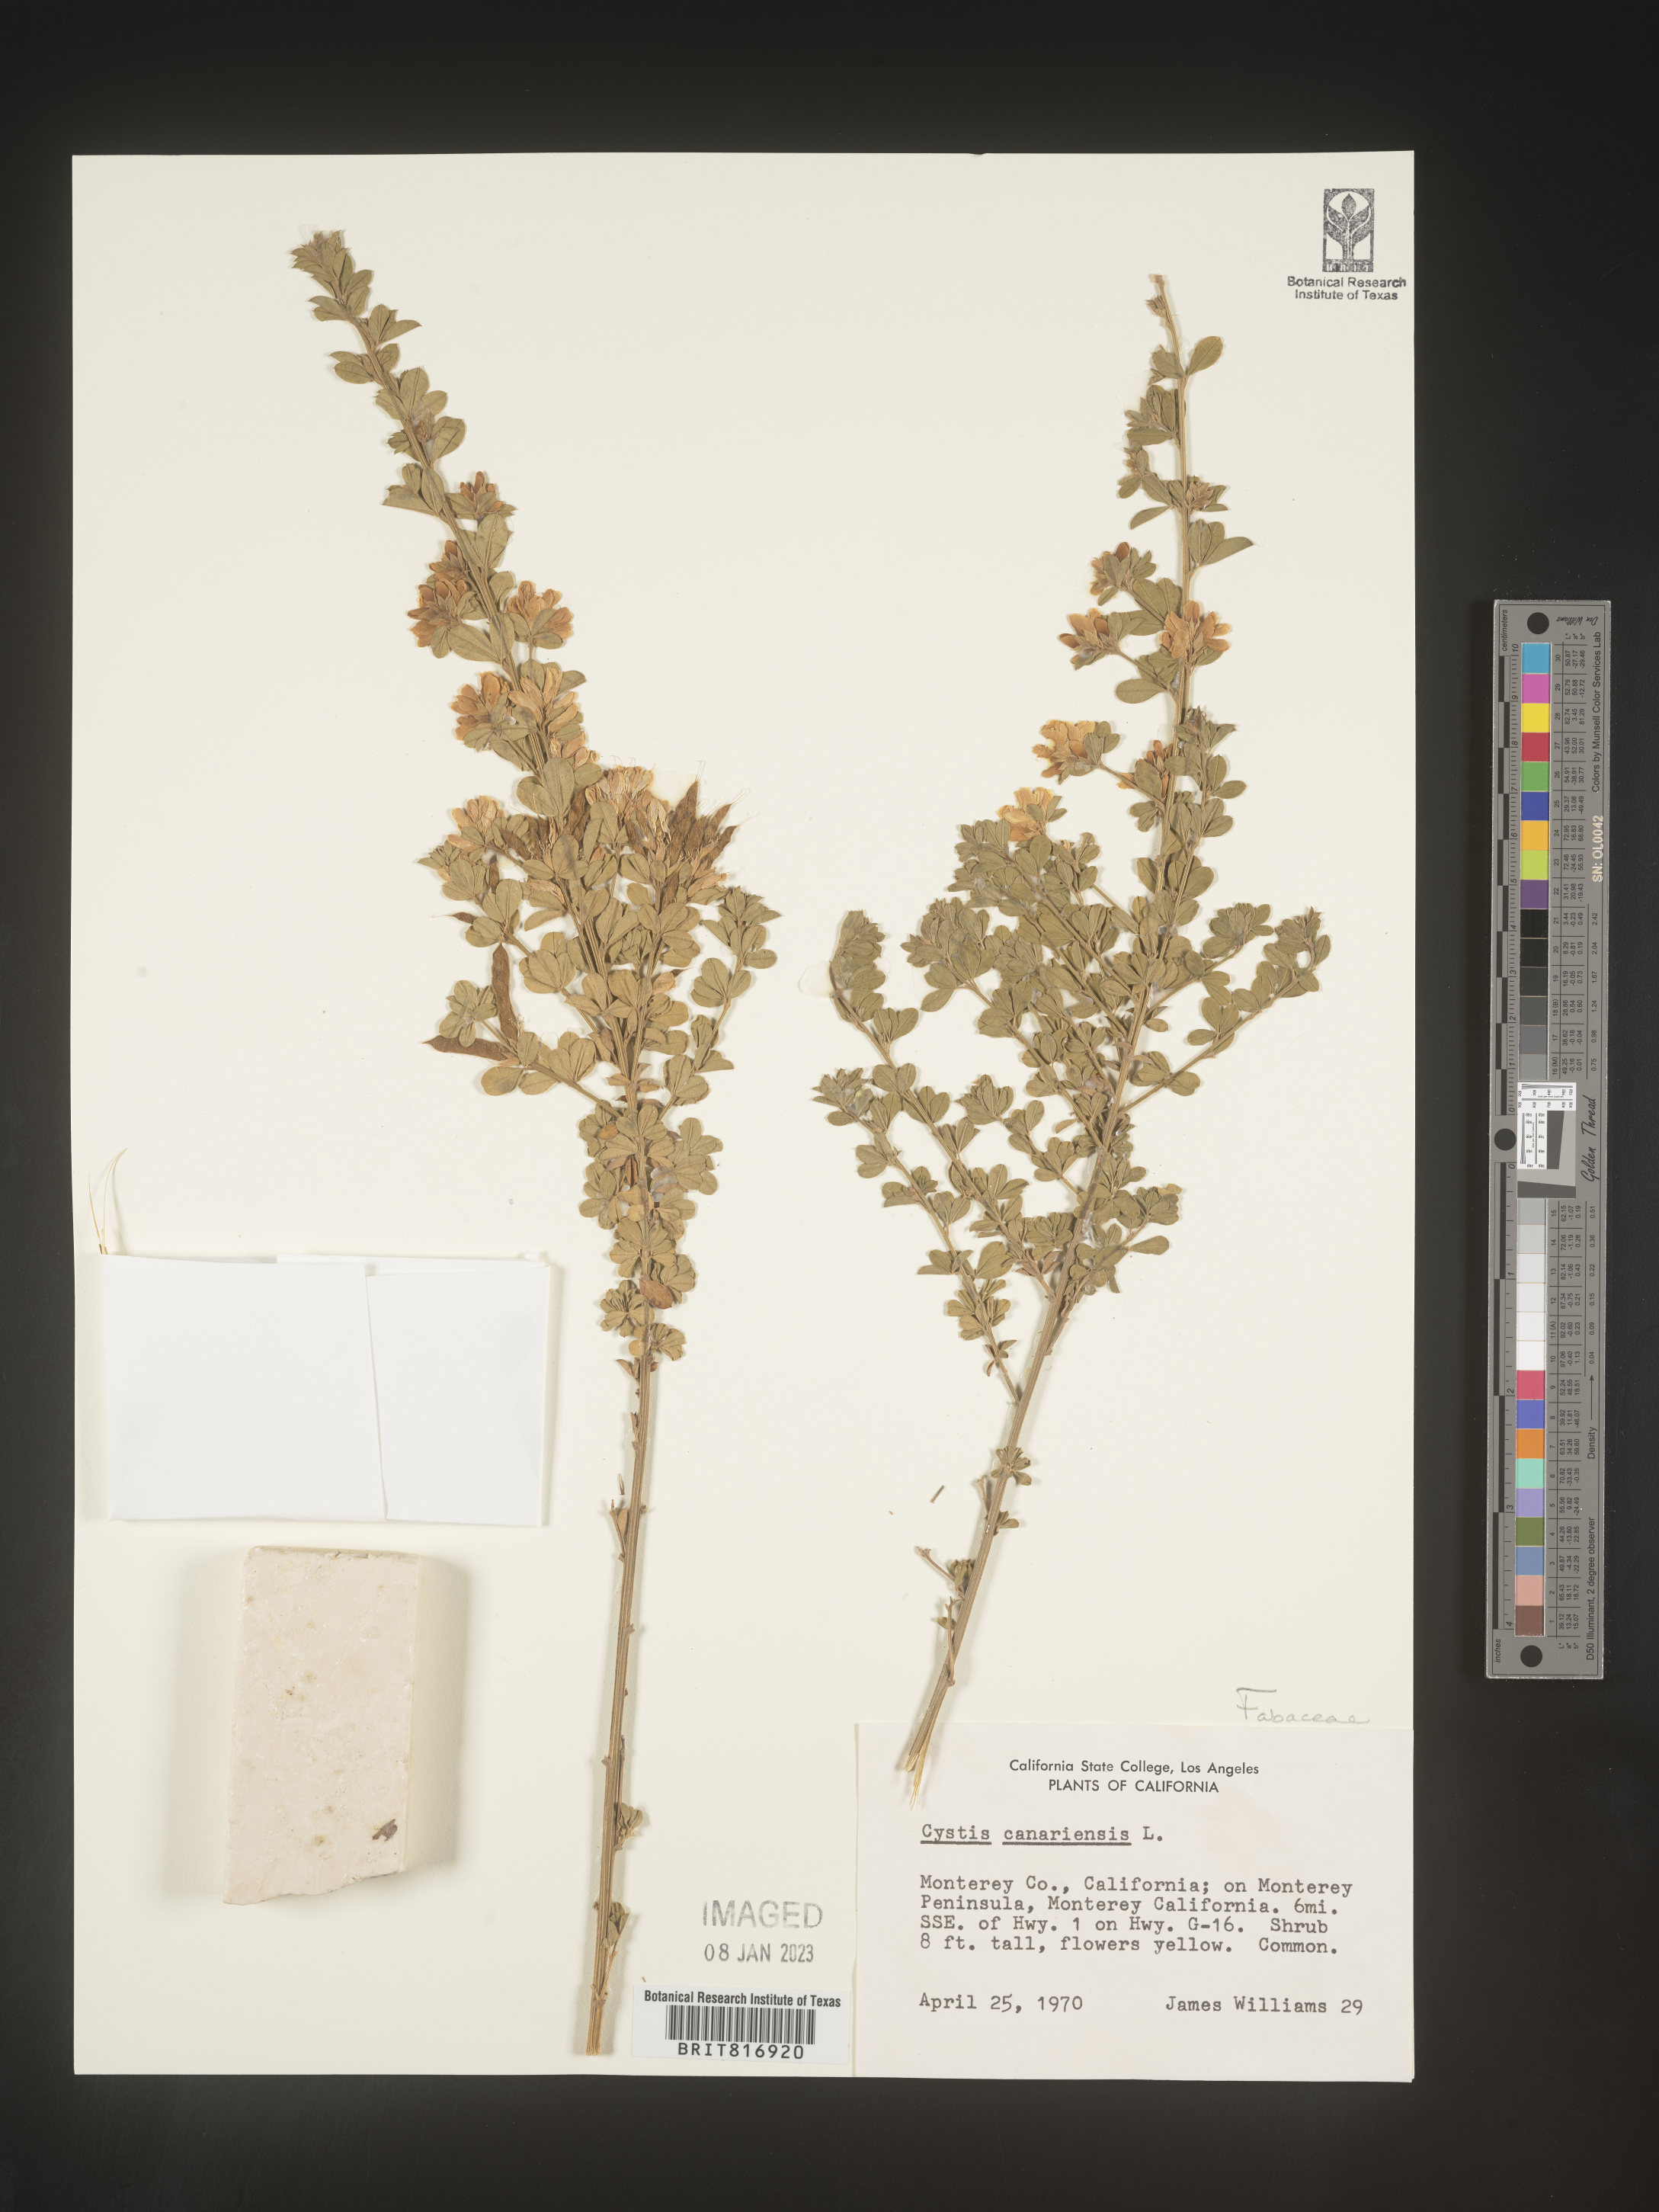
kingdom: Plantae
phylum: Tracheophyta
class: Magnoliopsida
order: Fabales
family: Fabaceae
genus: Cytisus
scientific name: Cytisus
